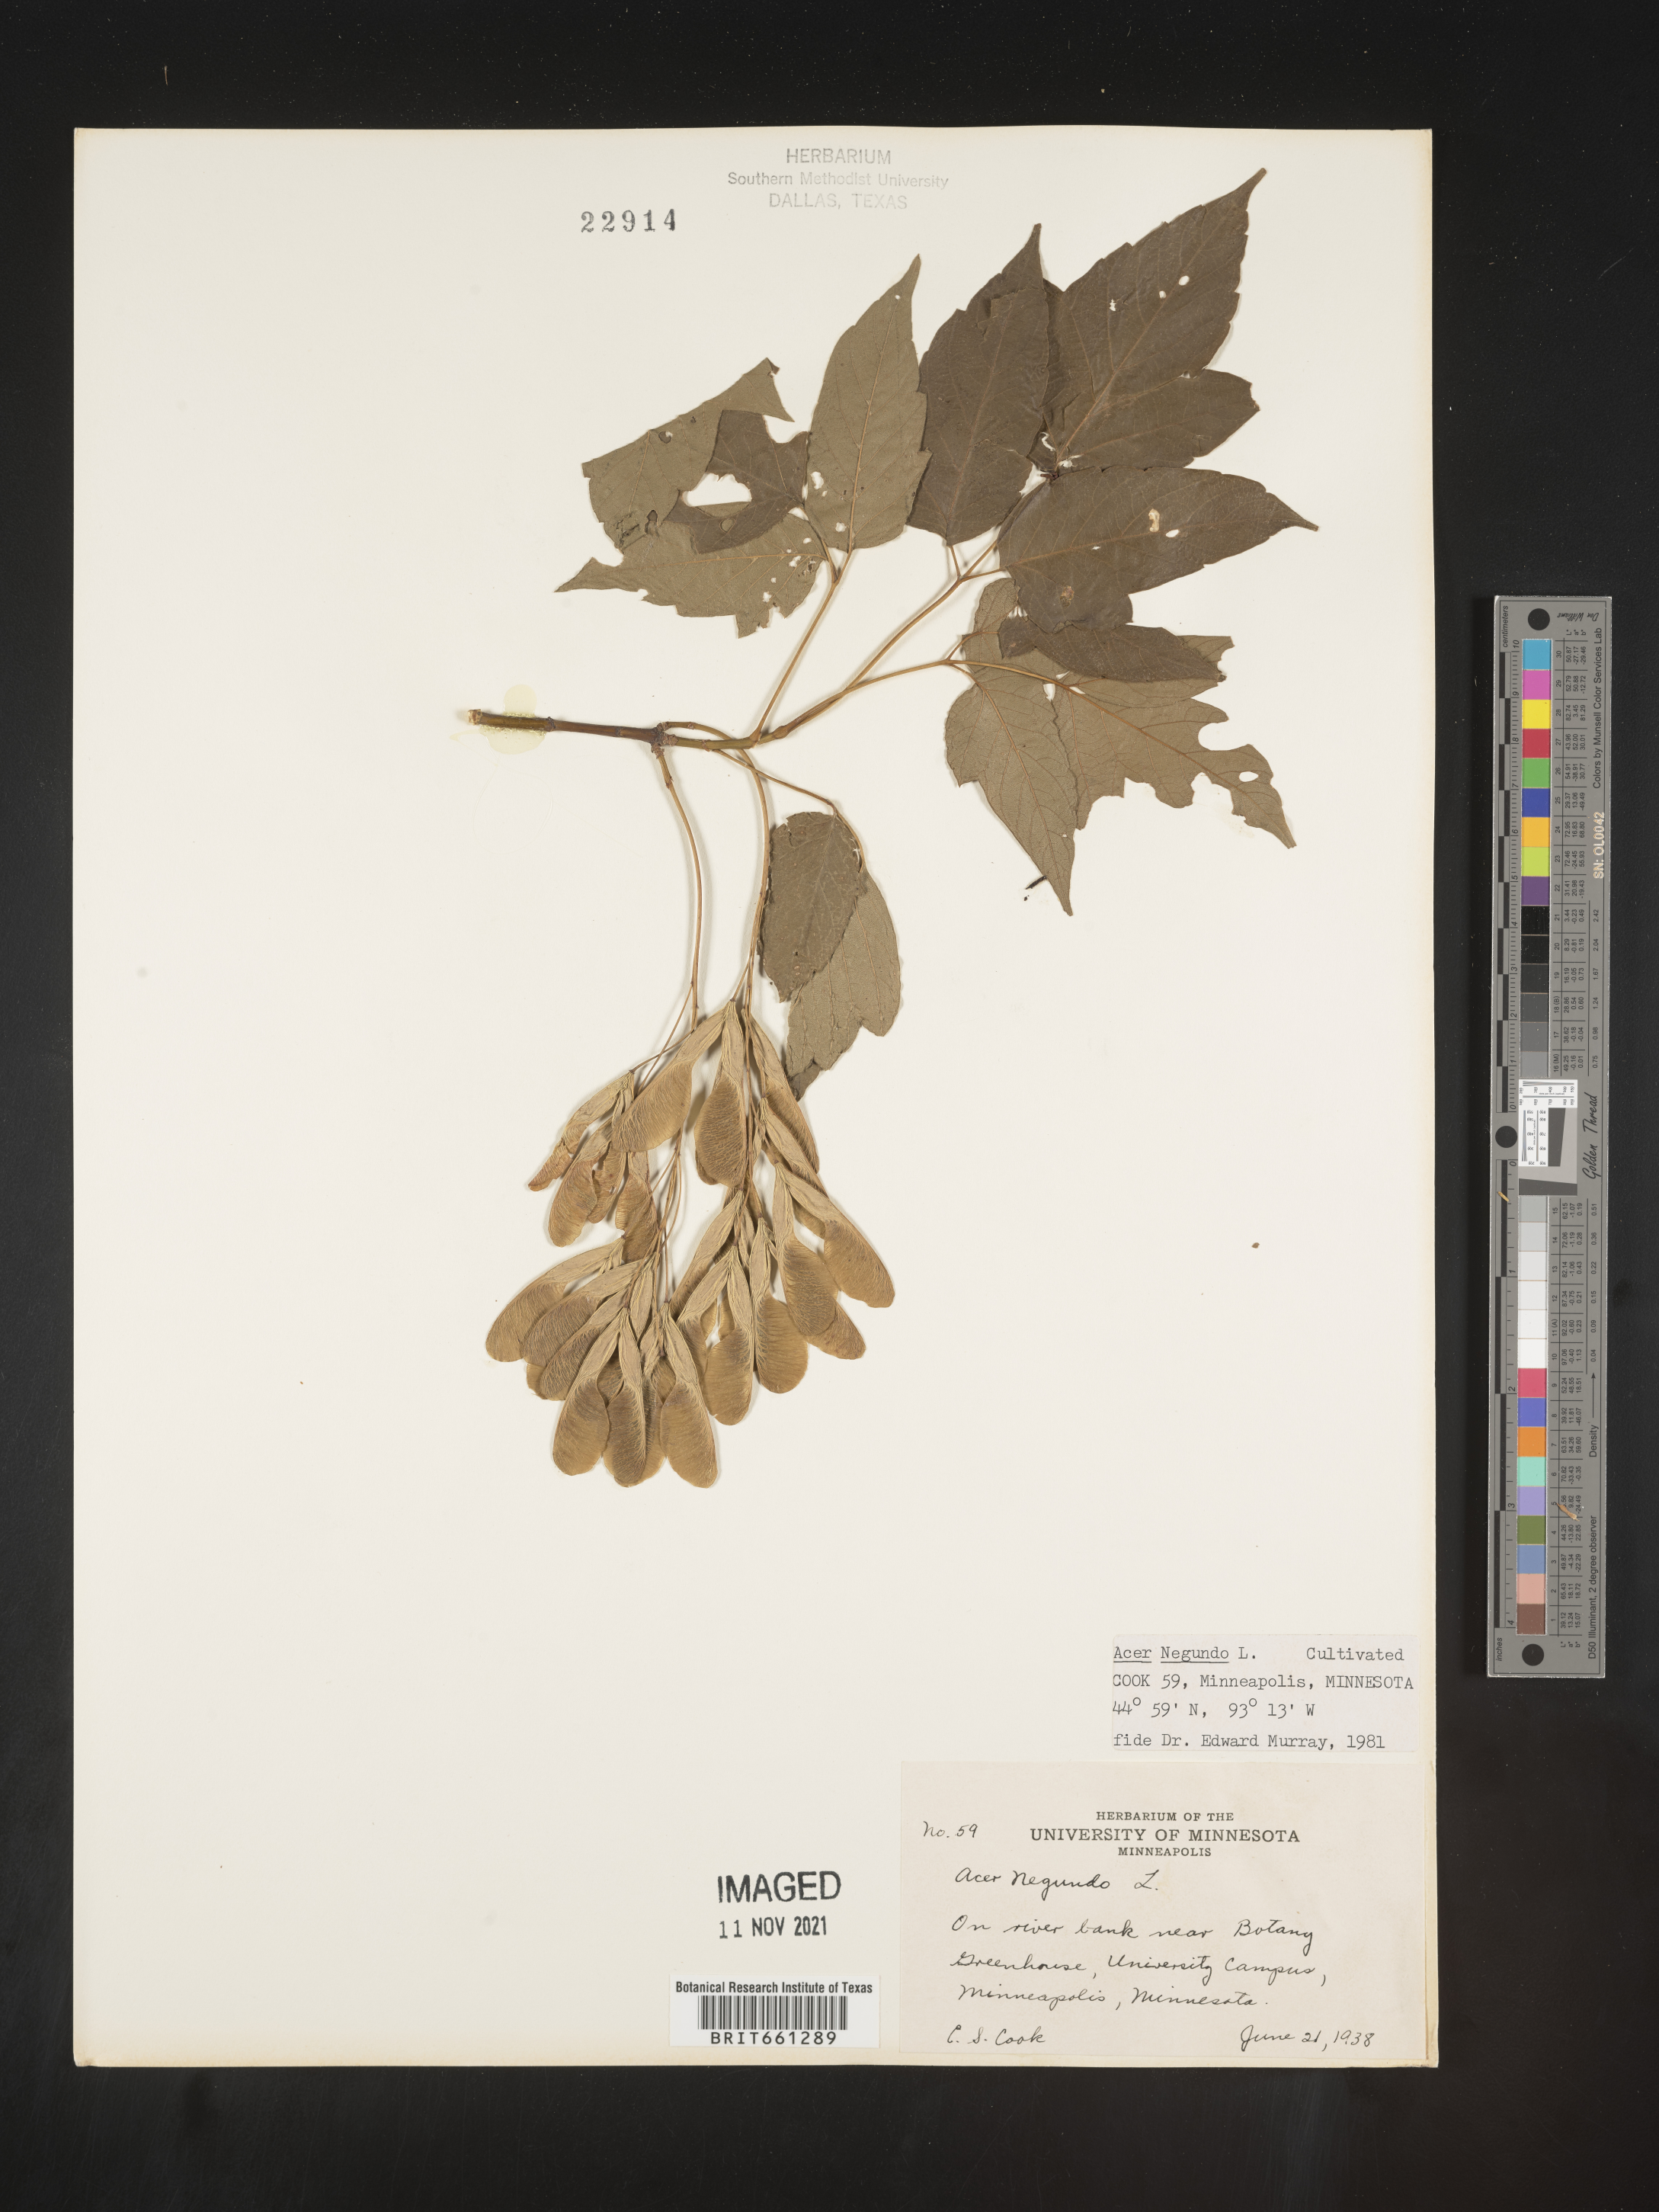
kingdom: Plantae
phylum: Tracheophyta
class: Magnoliopsida
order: Sapindales
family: Sapindaceae
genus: Acer
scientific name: Acer negundo
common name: Ashleaf maple
